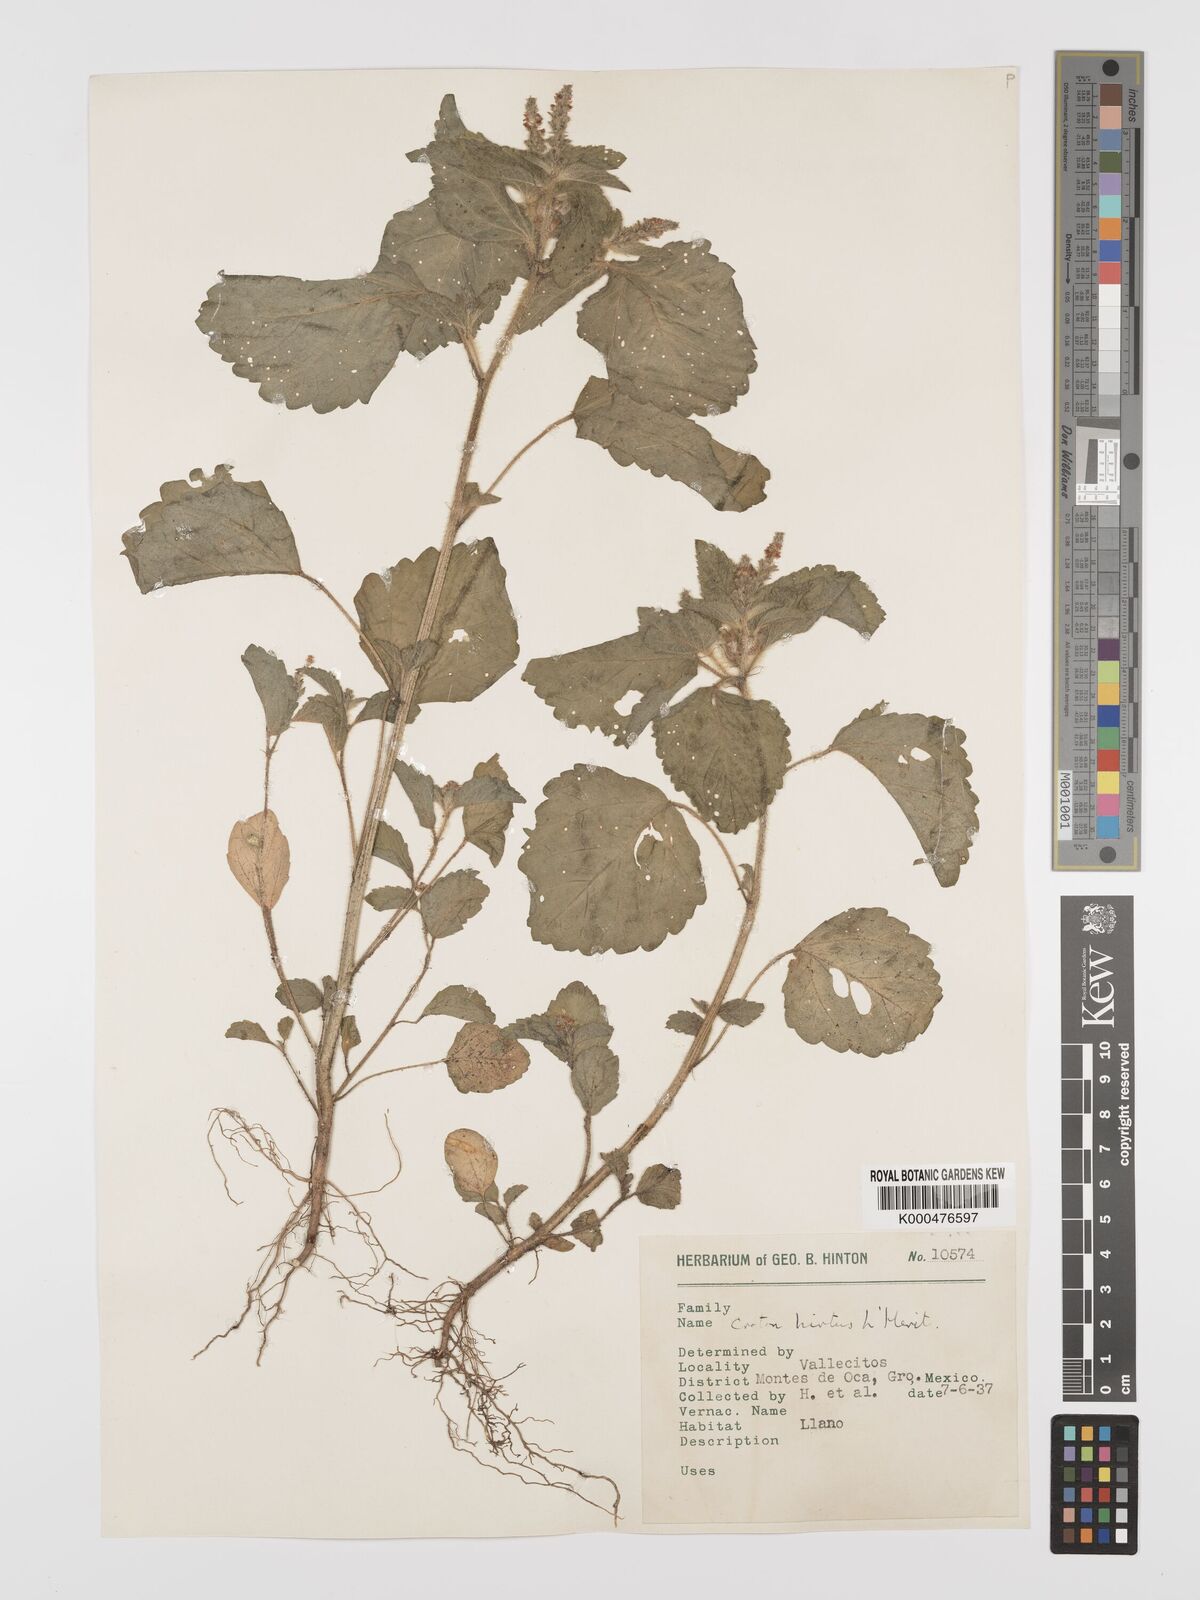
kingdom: Plantae
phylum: Tracheophyta
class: Magnoliopsida
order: Malpighiales
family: Euphorbiaceae
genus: Croton
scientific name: Croton
